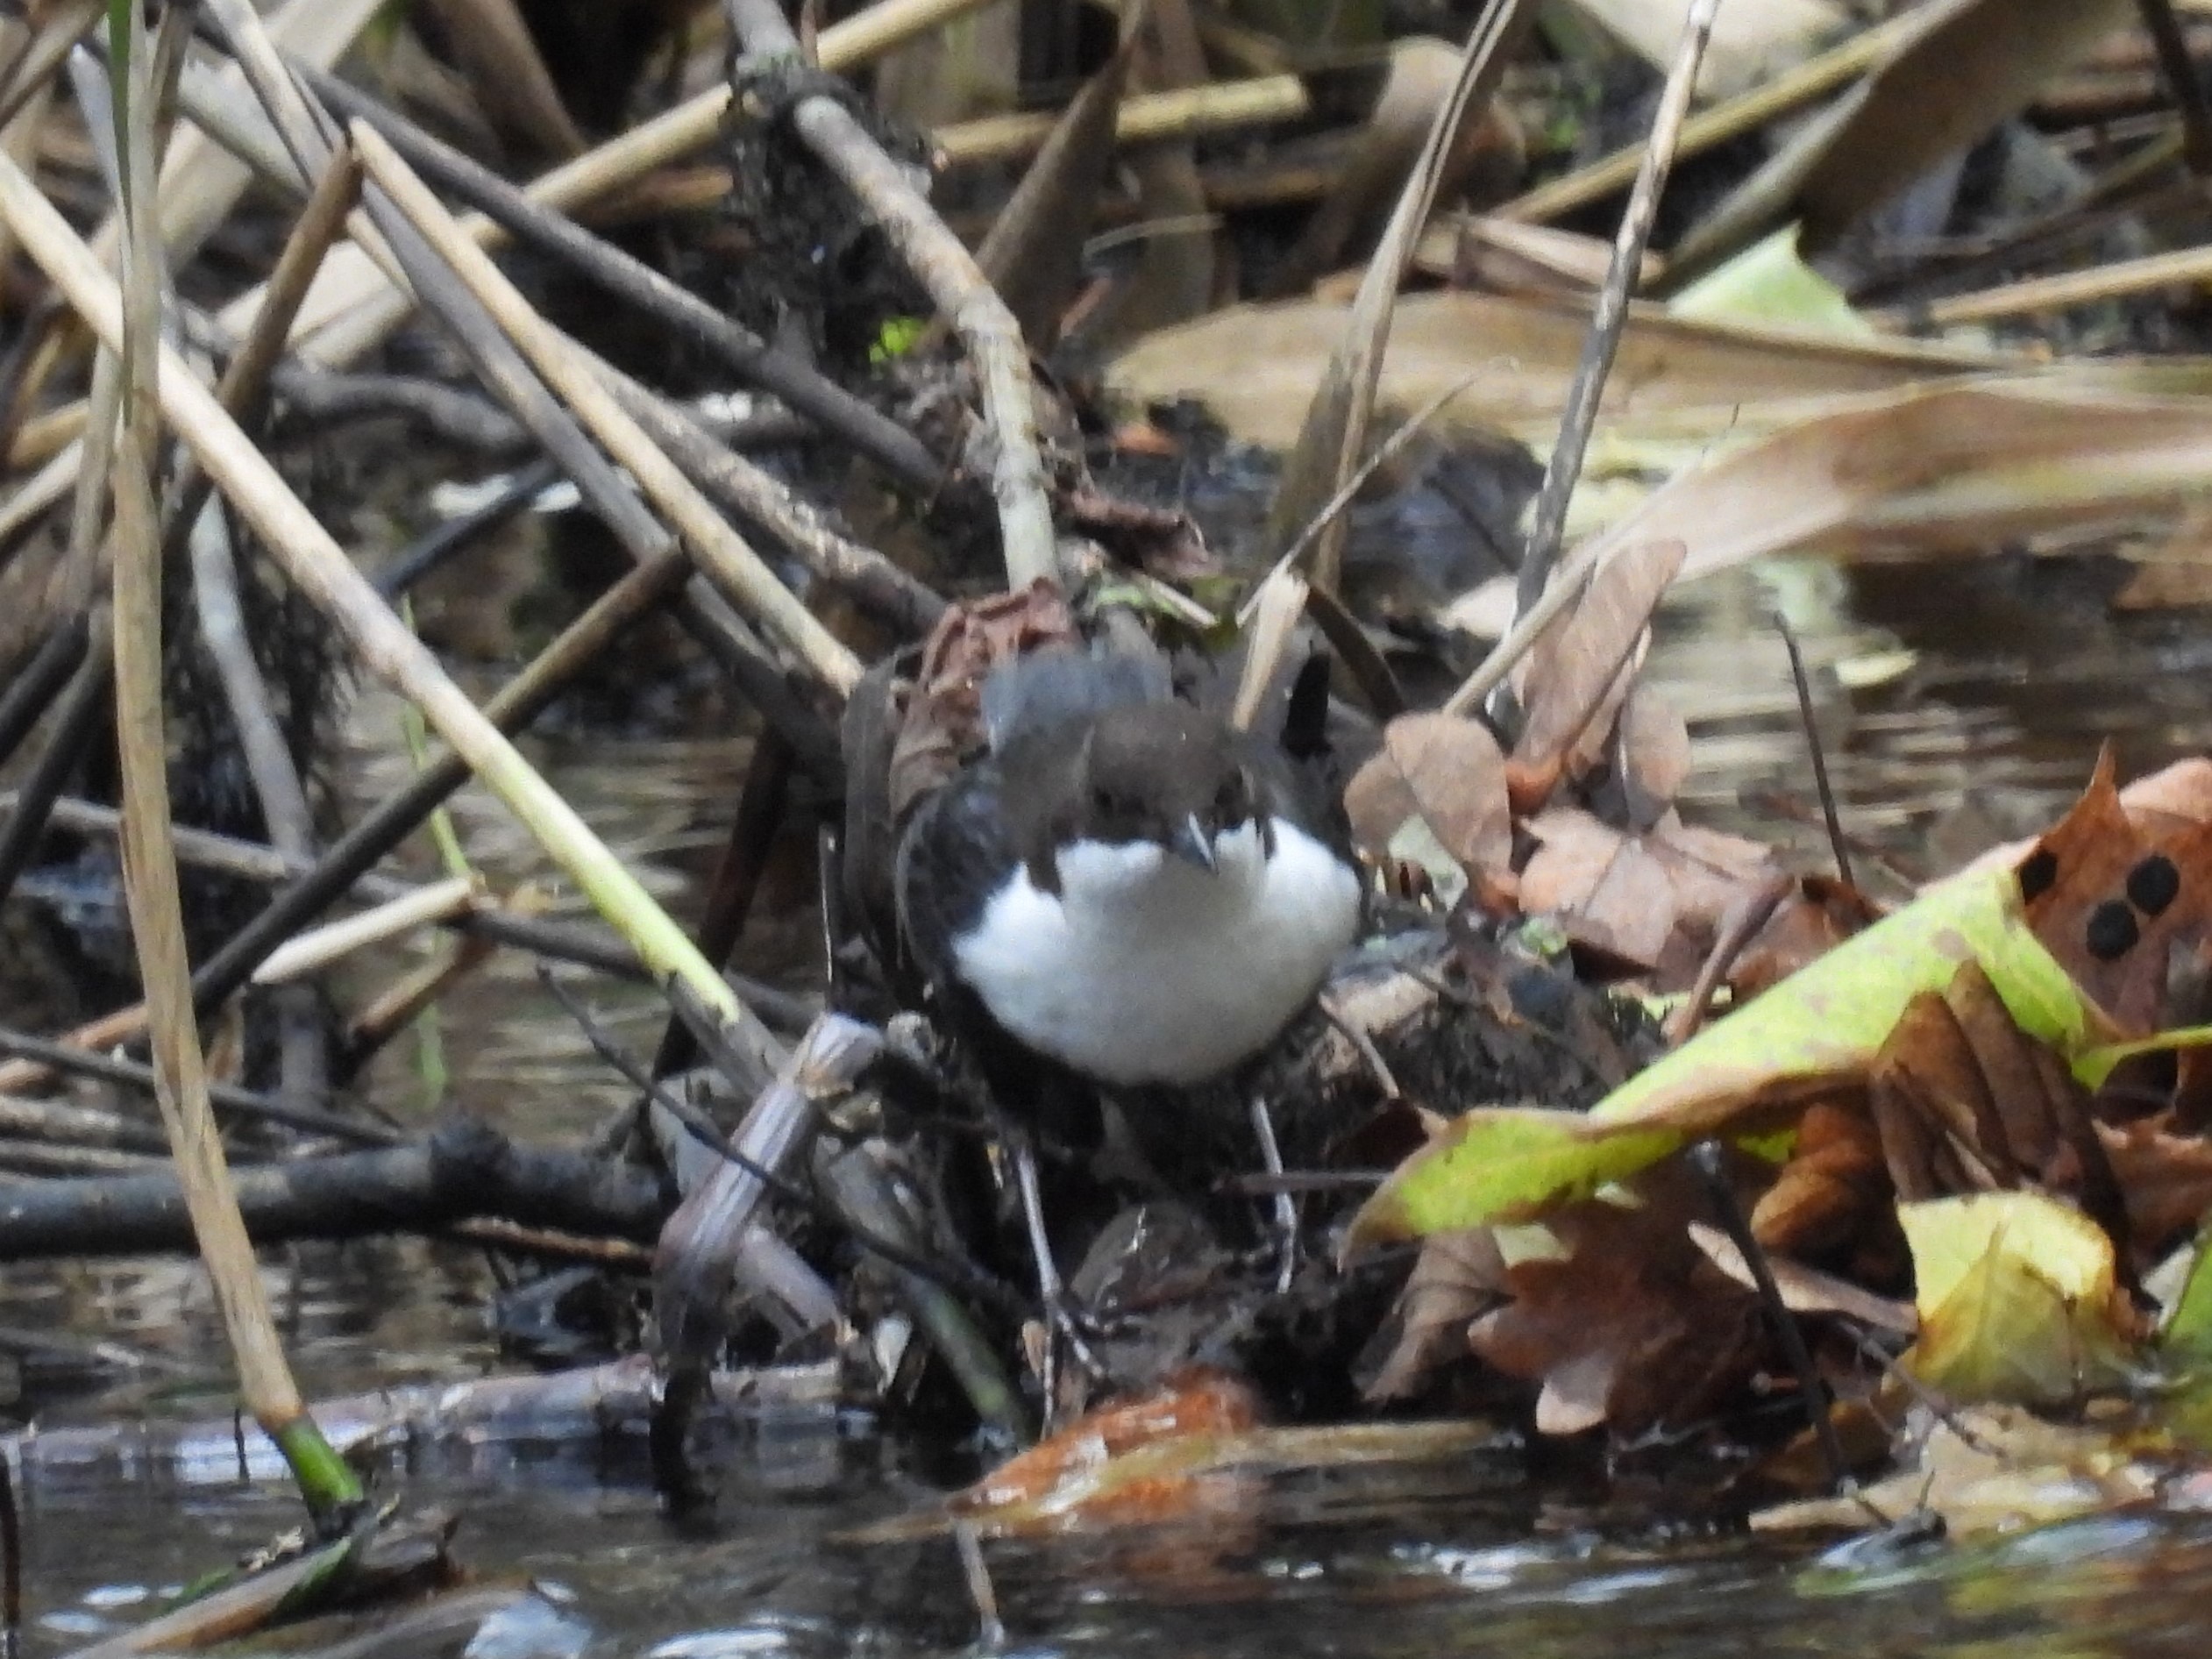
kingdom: Animalia
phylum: Chordata
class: Aves
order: Passeriformes
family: Cinclidae
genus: Cinclus
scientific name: Cinclus cinclus
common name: Vandstær
